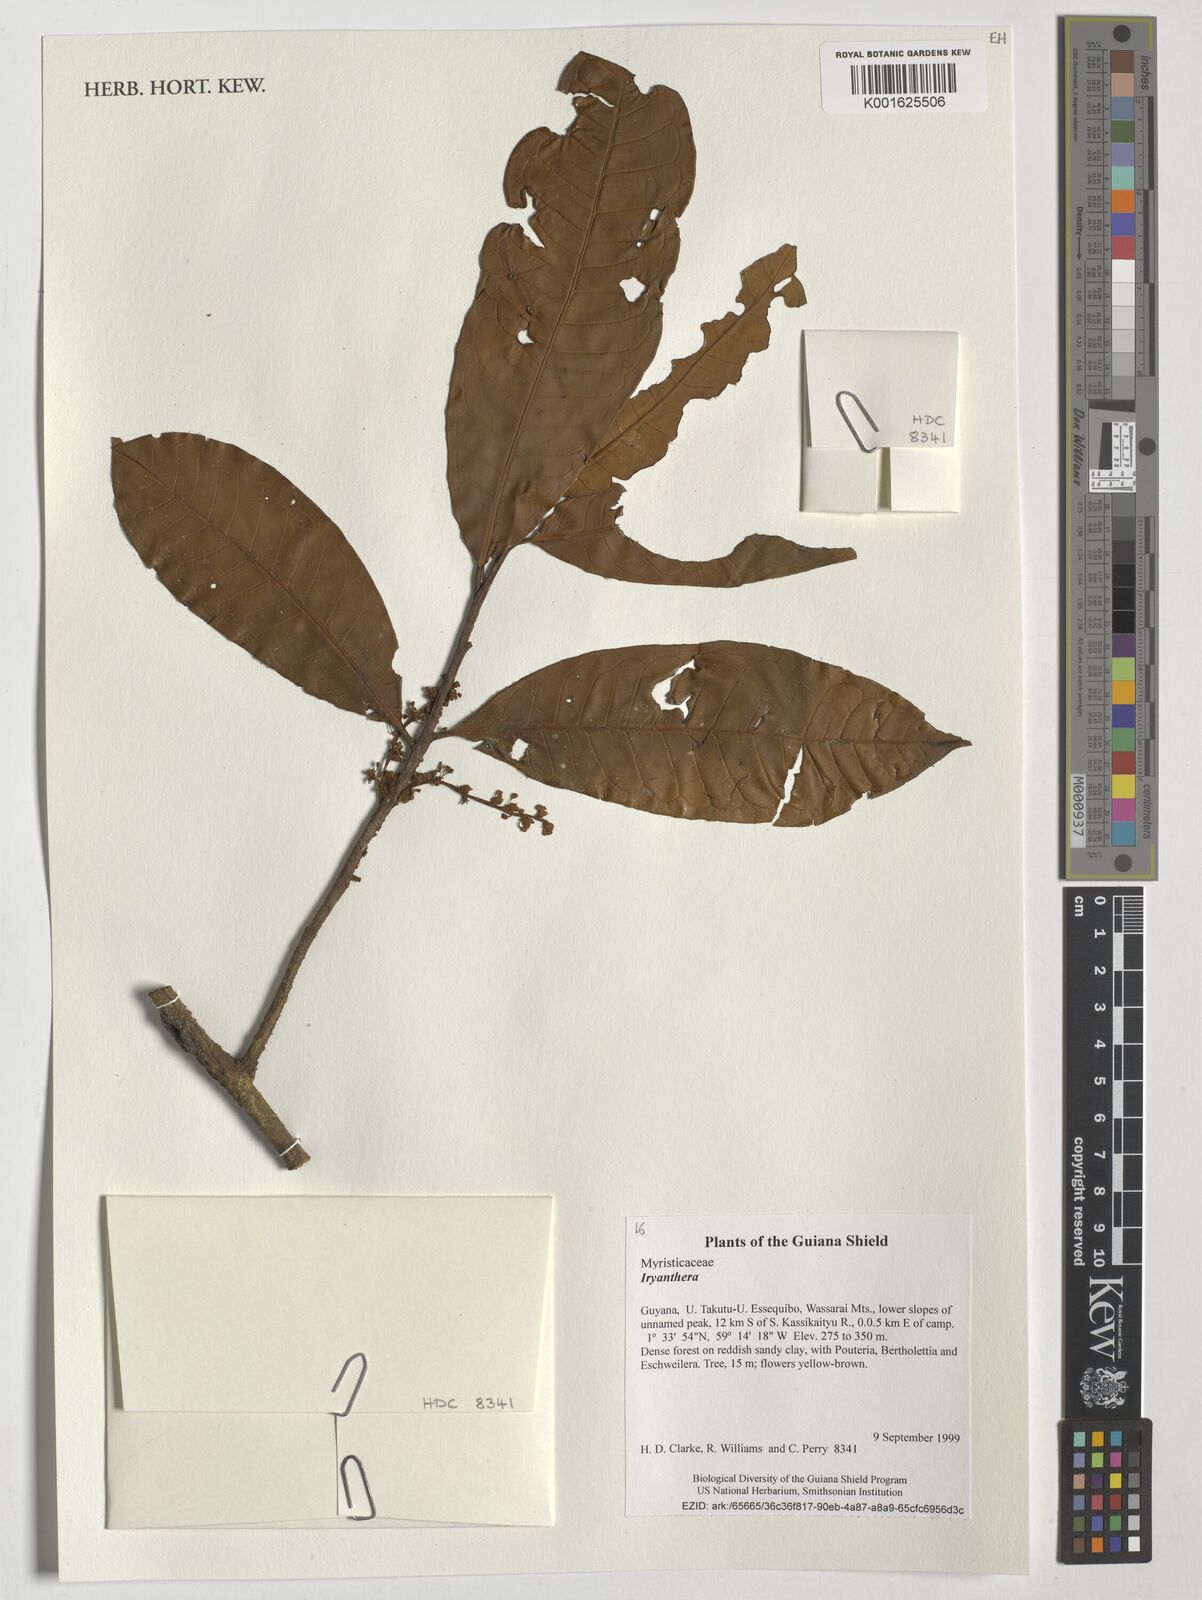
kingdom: Plantae
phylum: Tracheophyta
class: Magnoliopsida
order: Magnoliales
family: Myristicaceae
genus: Iryanthera
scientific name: Iryanthera
